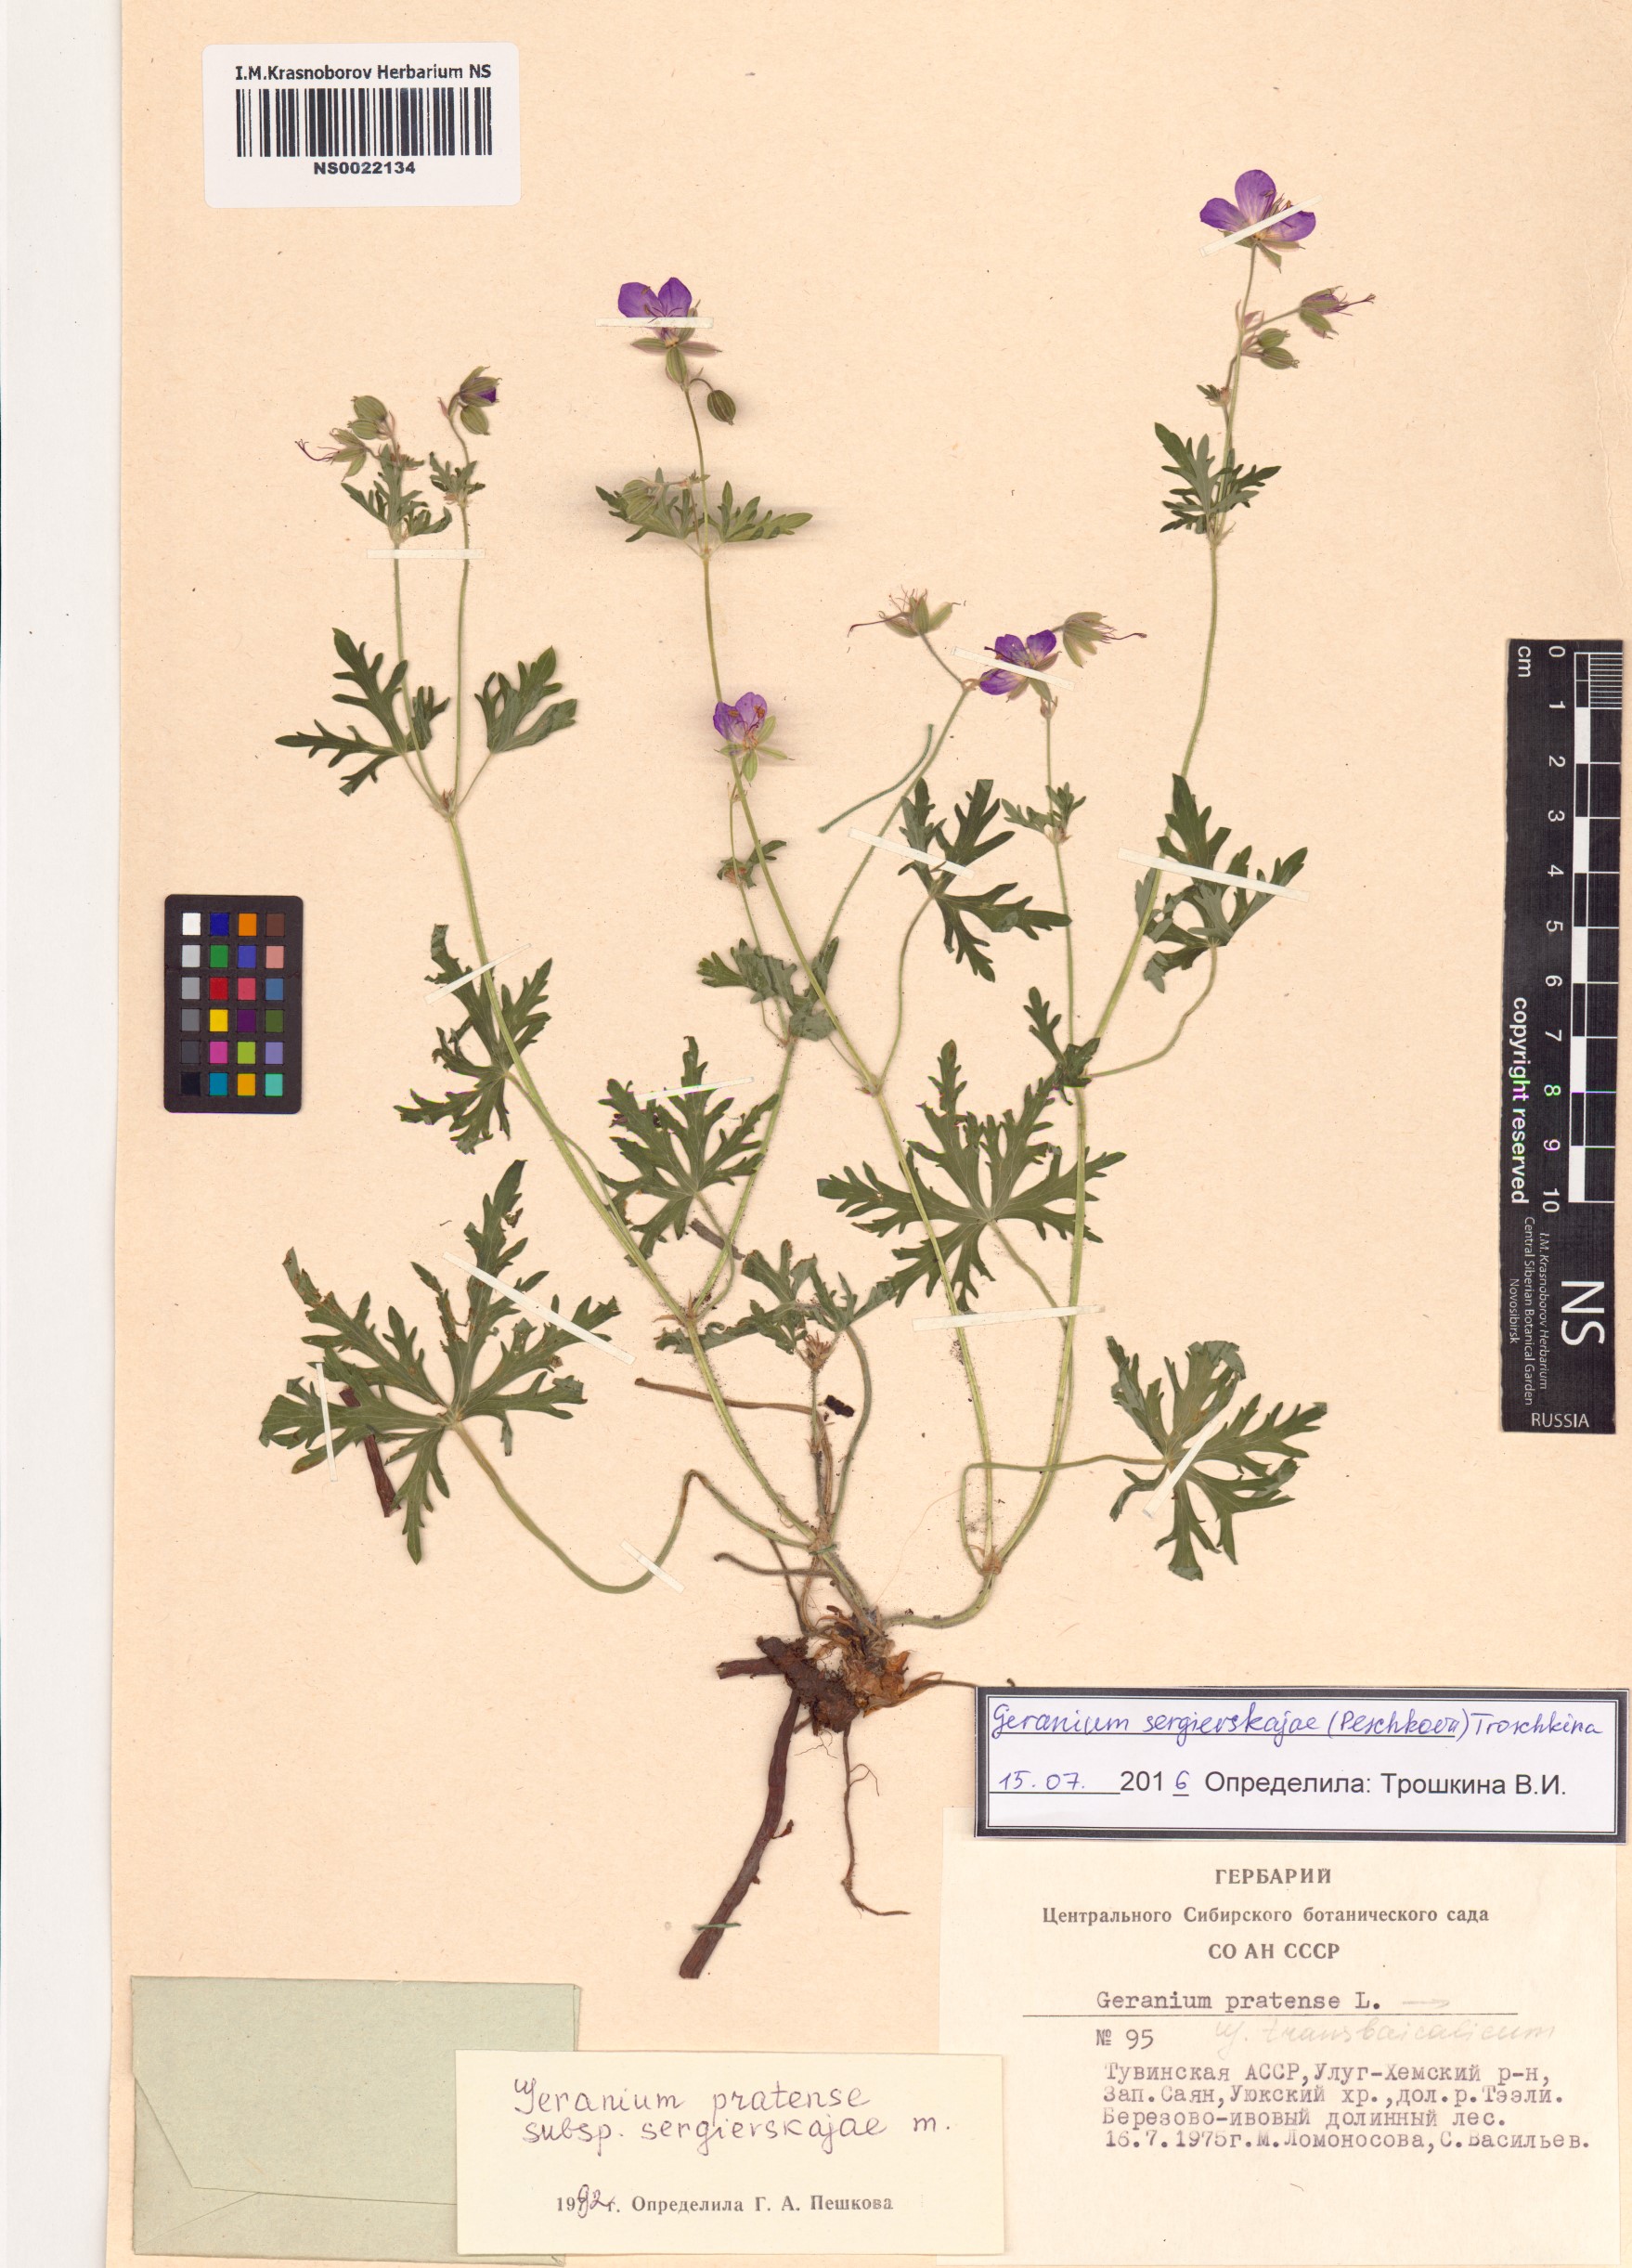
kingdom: Plantae
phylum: Tracheophyta
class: Magnoliopsida
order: Geraniales
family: Geraniaceae
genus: Geranium
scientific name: Geranium pratense
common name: Meadow crane's-bill
